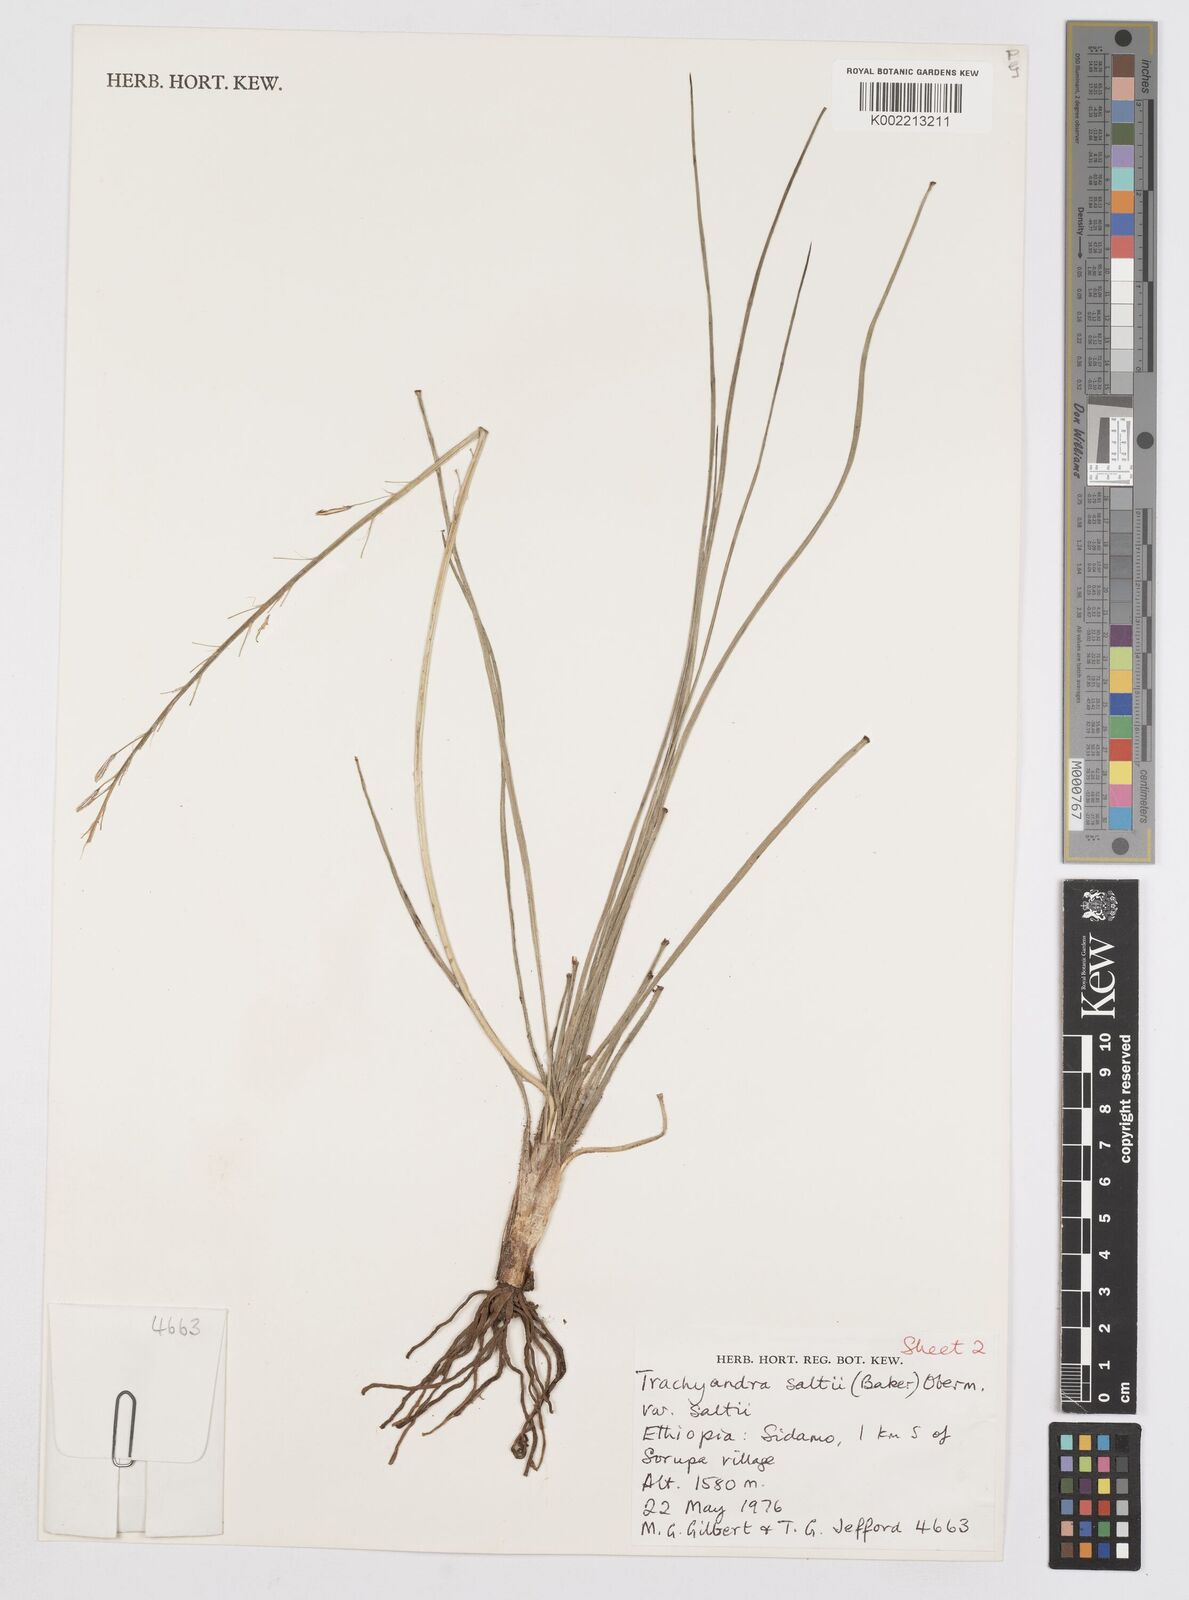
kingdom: Plantae
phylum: Tracheophyta
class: Liliopsida
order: Asparagales
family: Asphodelaceae
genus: Trachyandra
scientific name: Trachyandra saltii
